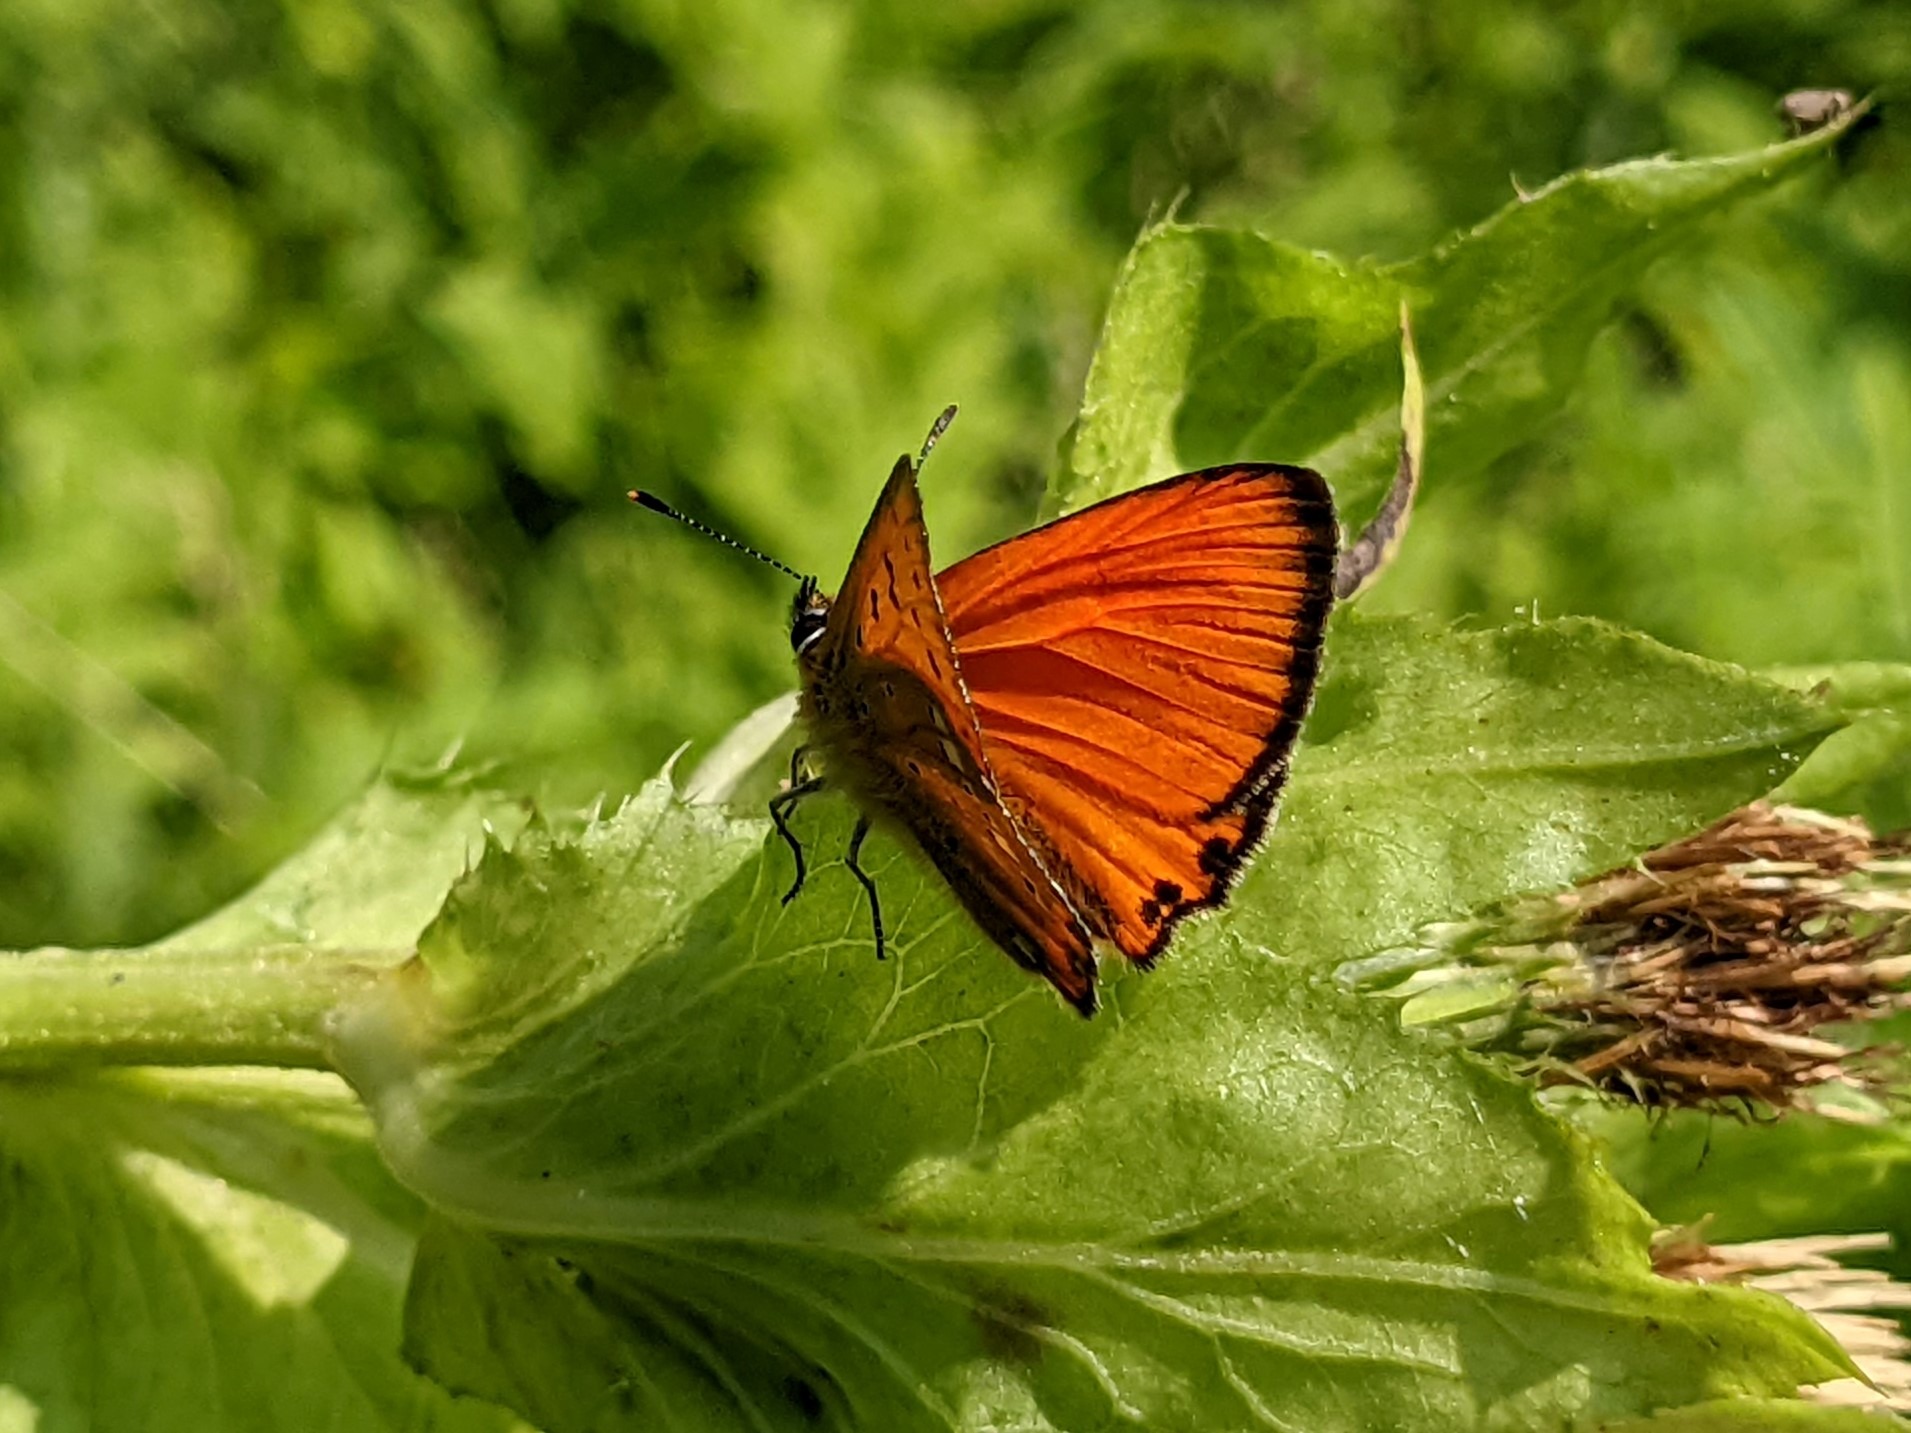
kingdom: Animalia
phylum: Arthropoda
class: Insecta
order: Lepidoptera
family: Lycaenidae
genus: Lycaena
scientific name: Lycaena virgaureae
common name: Dukatsommerfugl
